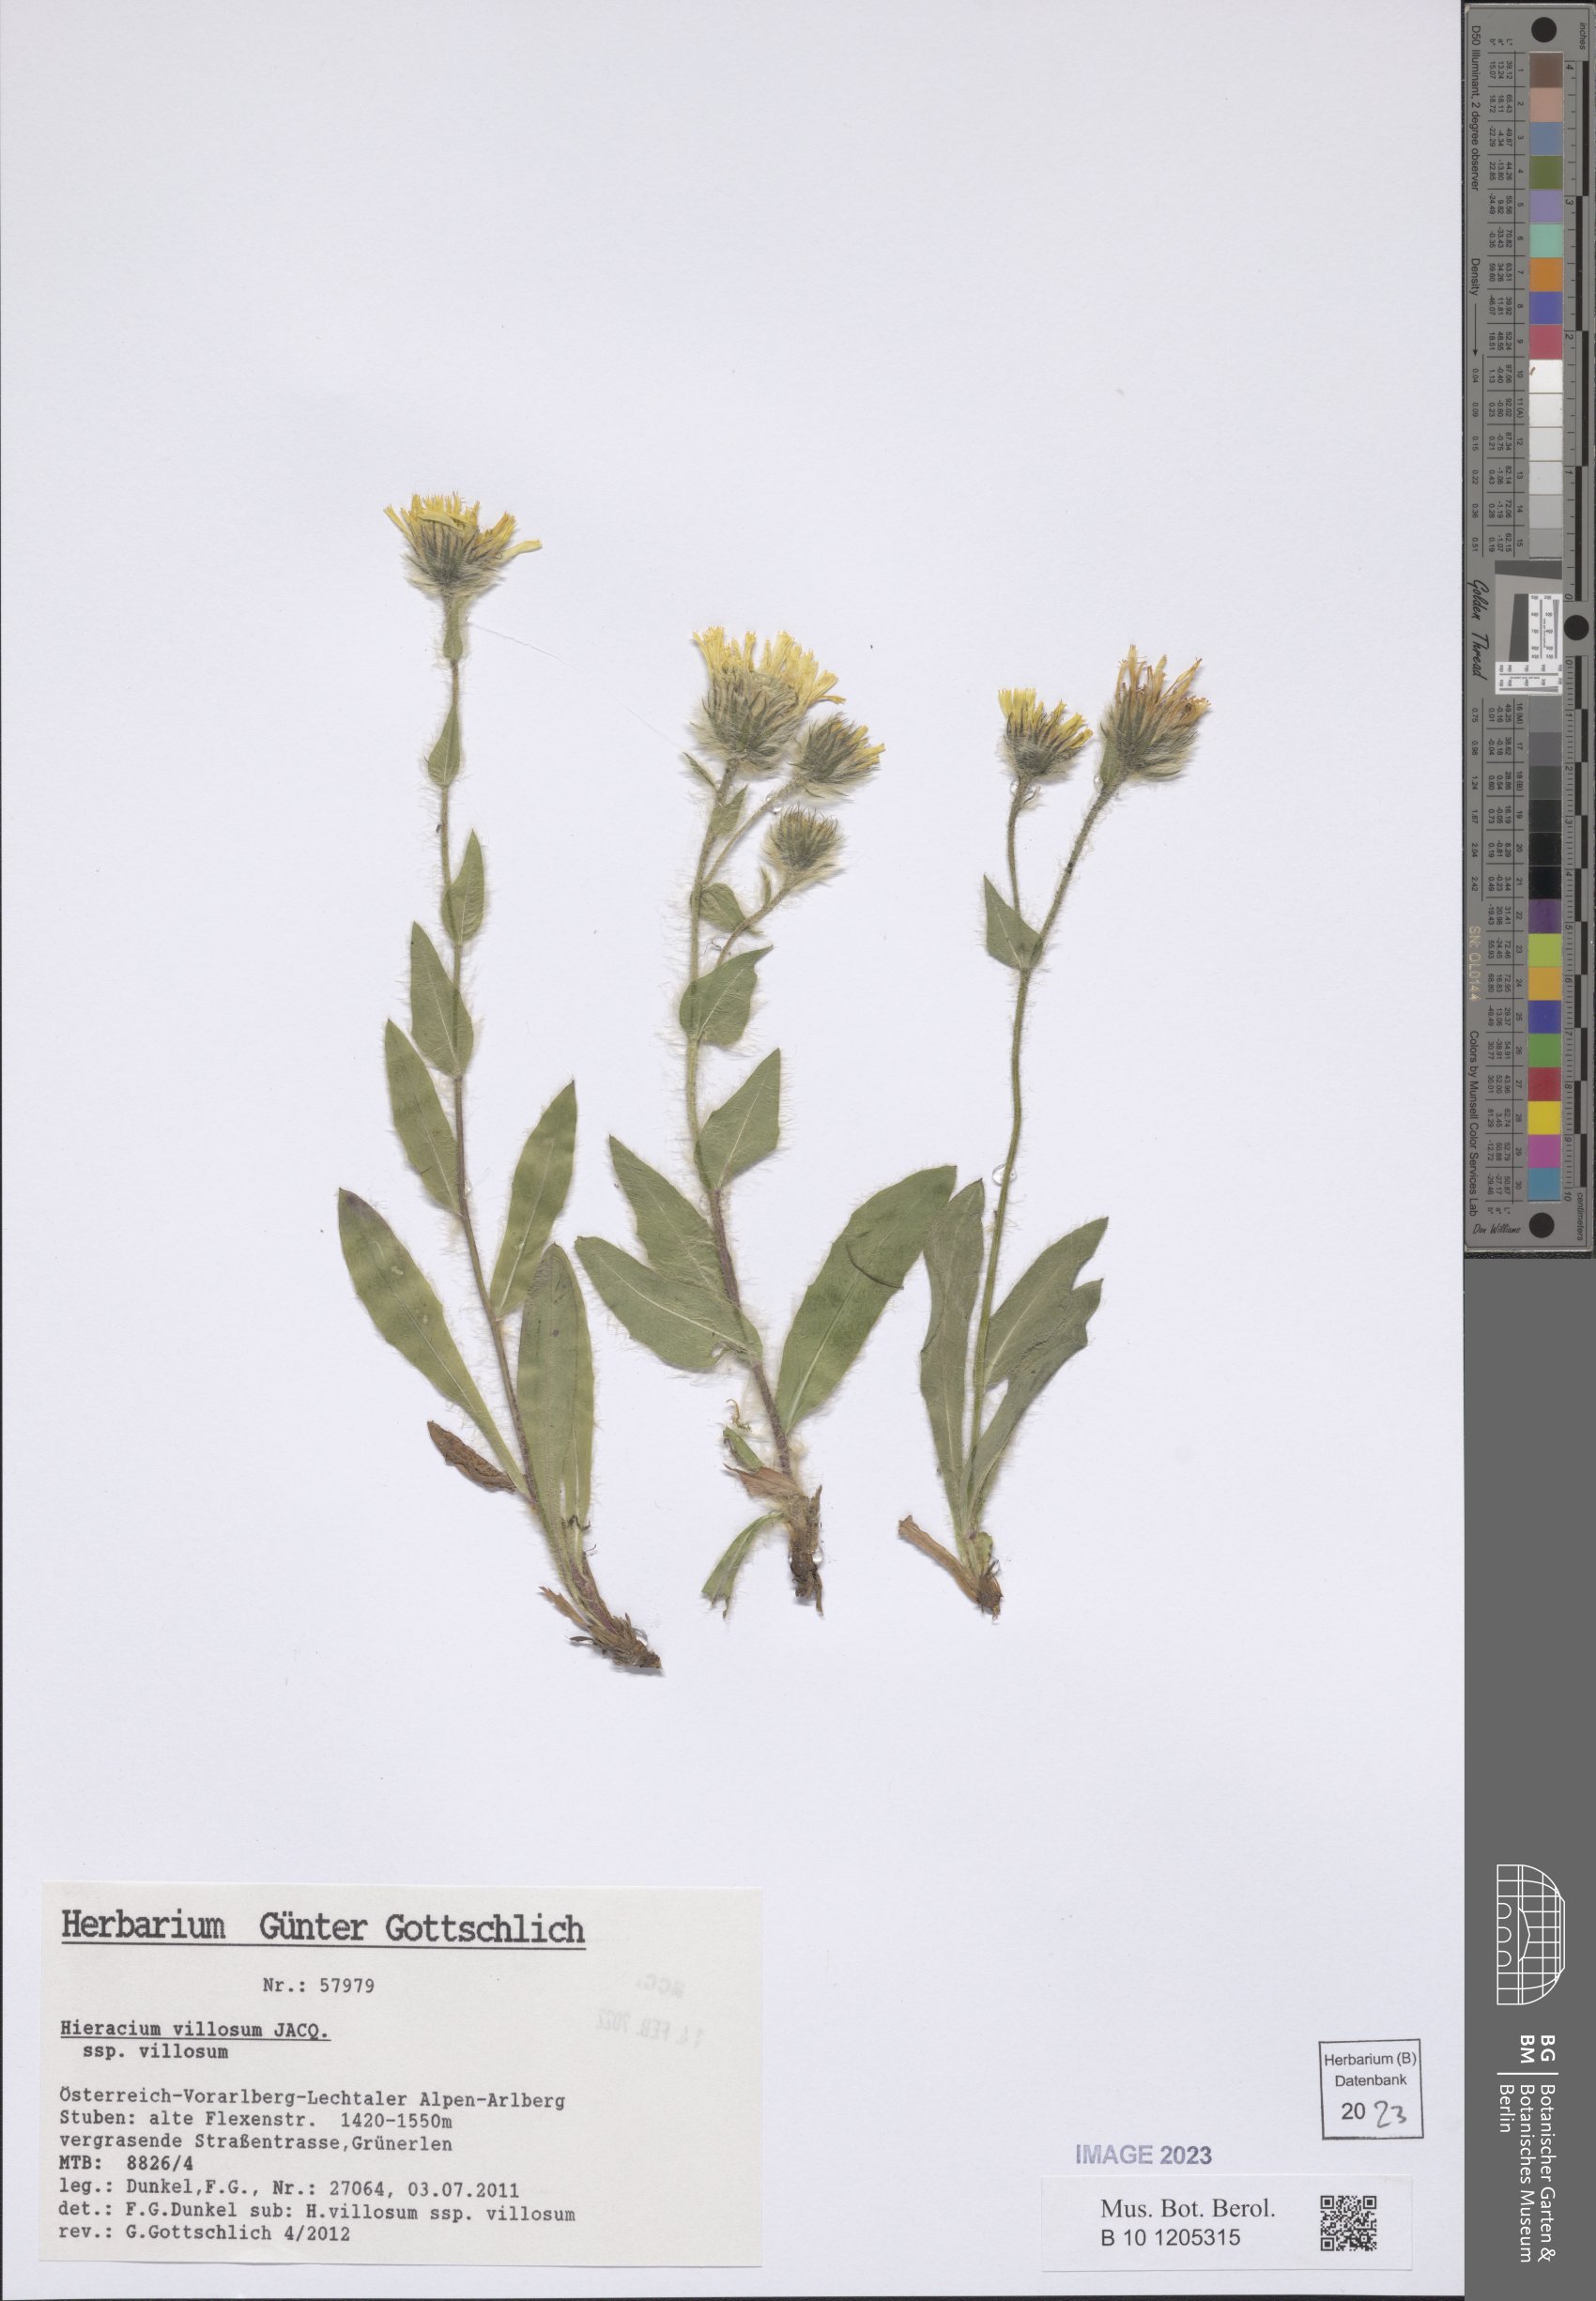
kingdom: Plantae
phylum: Tracheophyta
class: Magnoliopsida
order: Asterales
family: Asteraceae
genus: Hieracium
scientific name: Hieracium villosum
